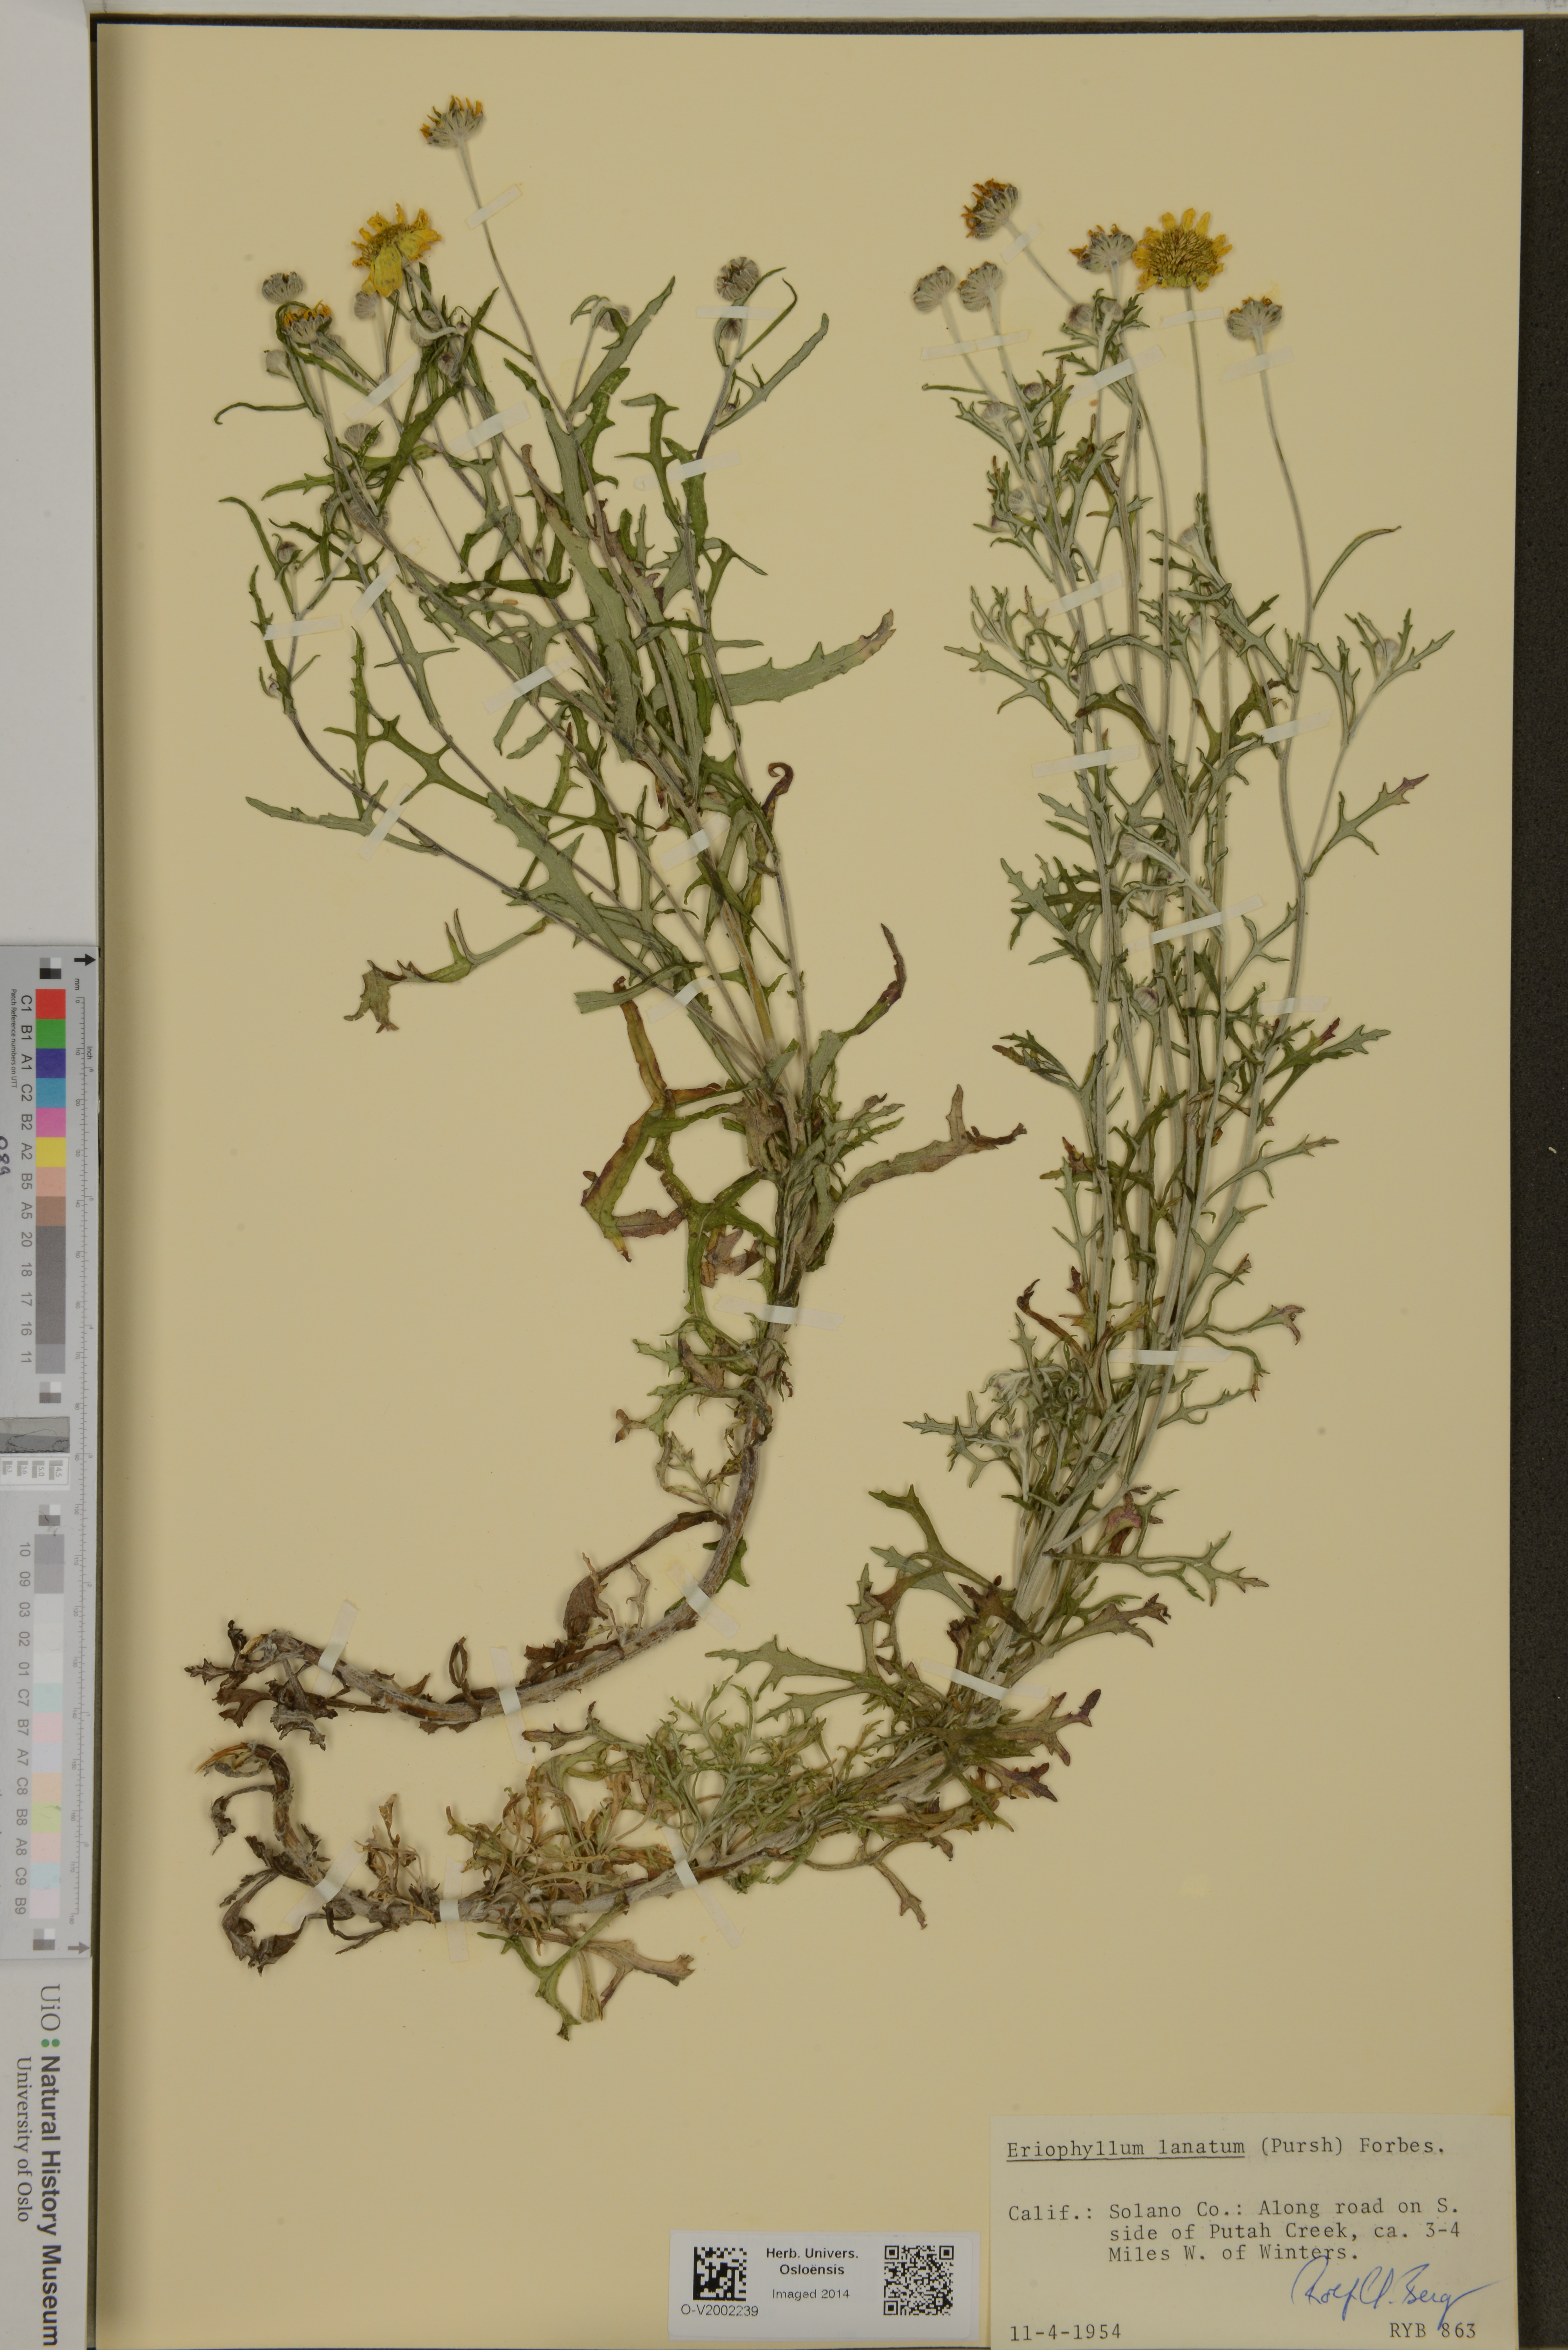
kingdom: Plantae
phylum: Tracheophyta
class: Magnoliopsida
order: Asterales
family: Asteraceae
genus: Eriophyllum
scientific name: Eriophyllum lanatum
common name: Common woolly-sunflower
